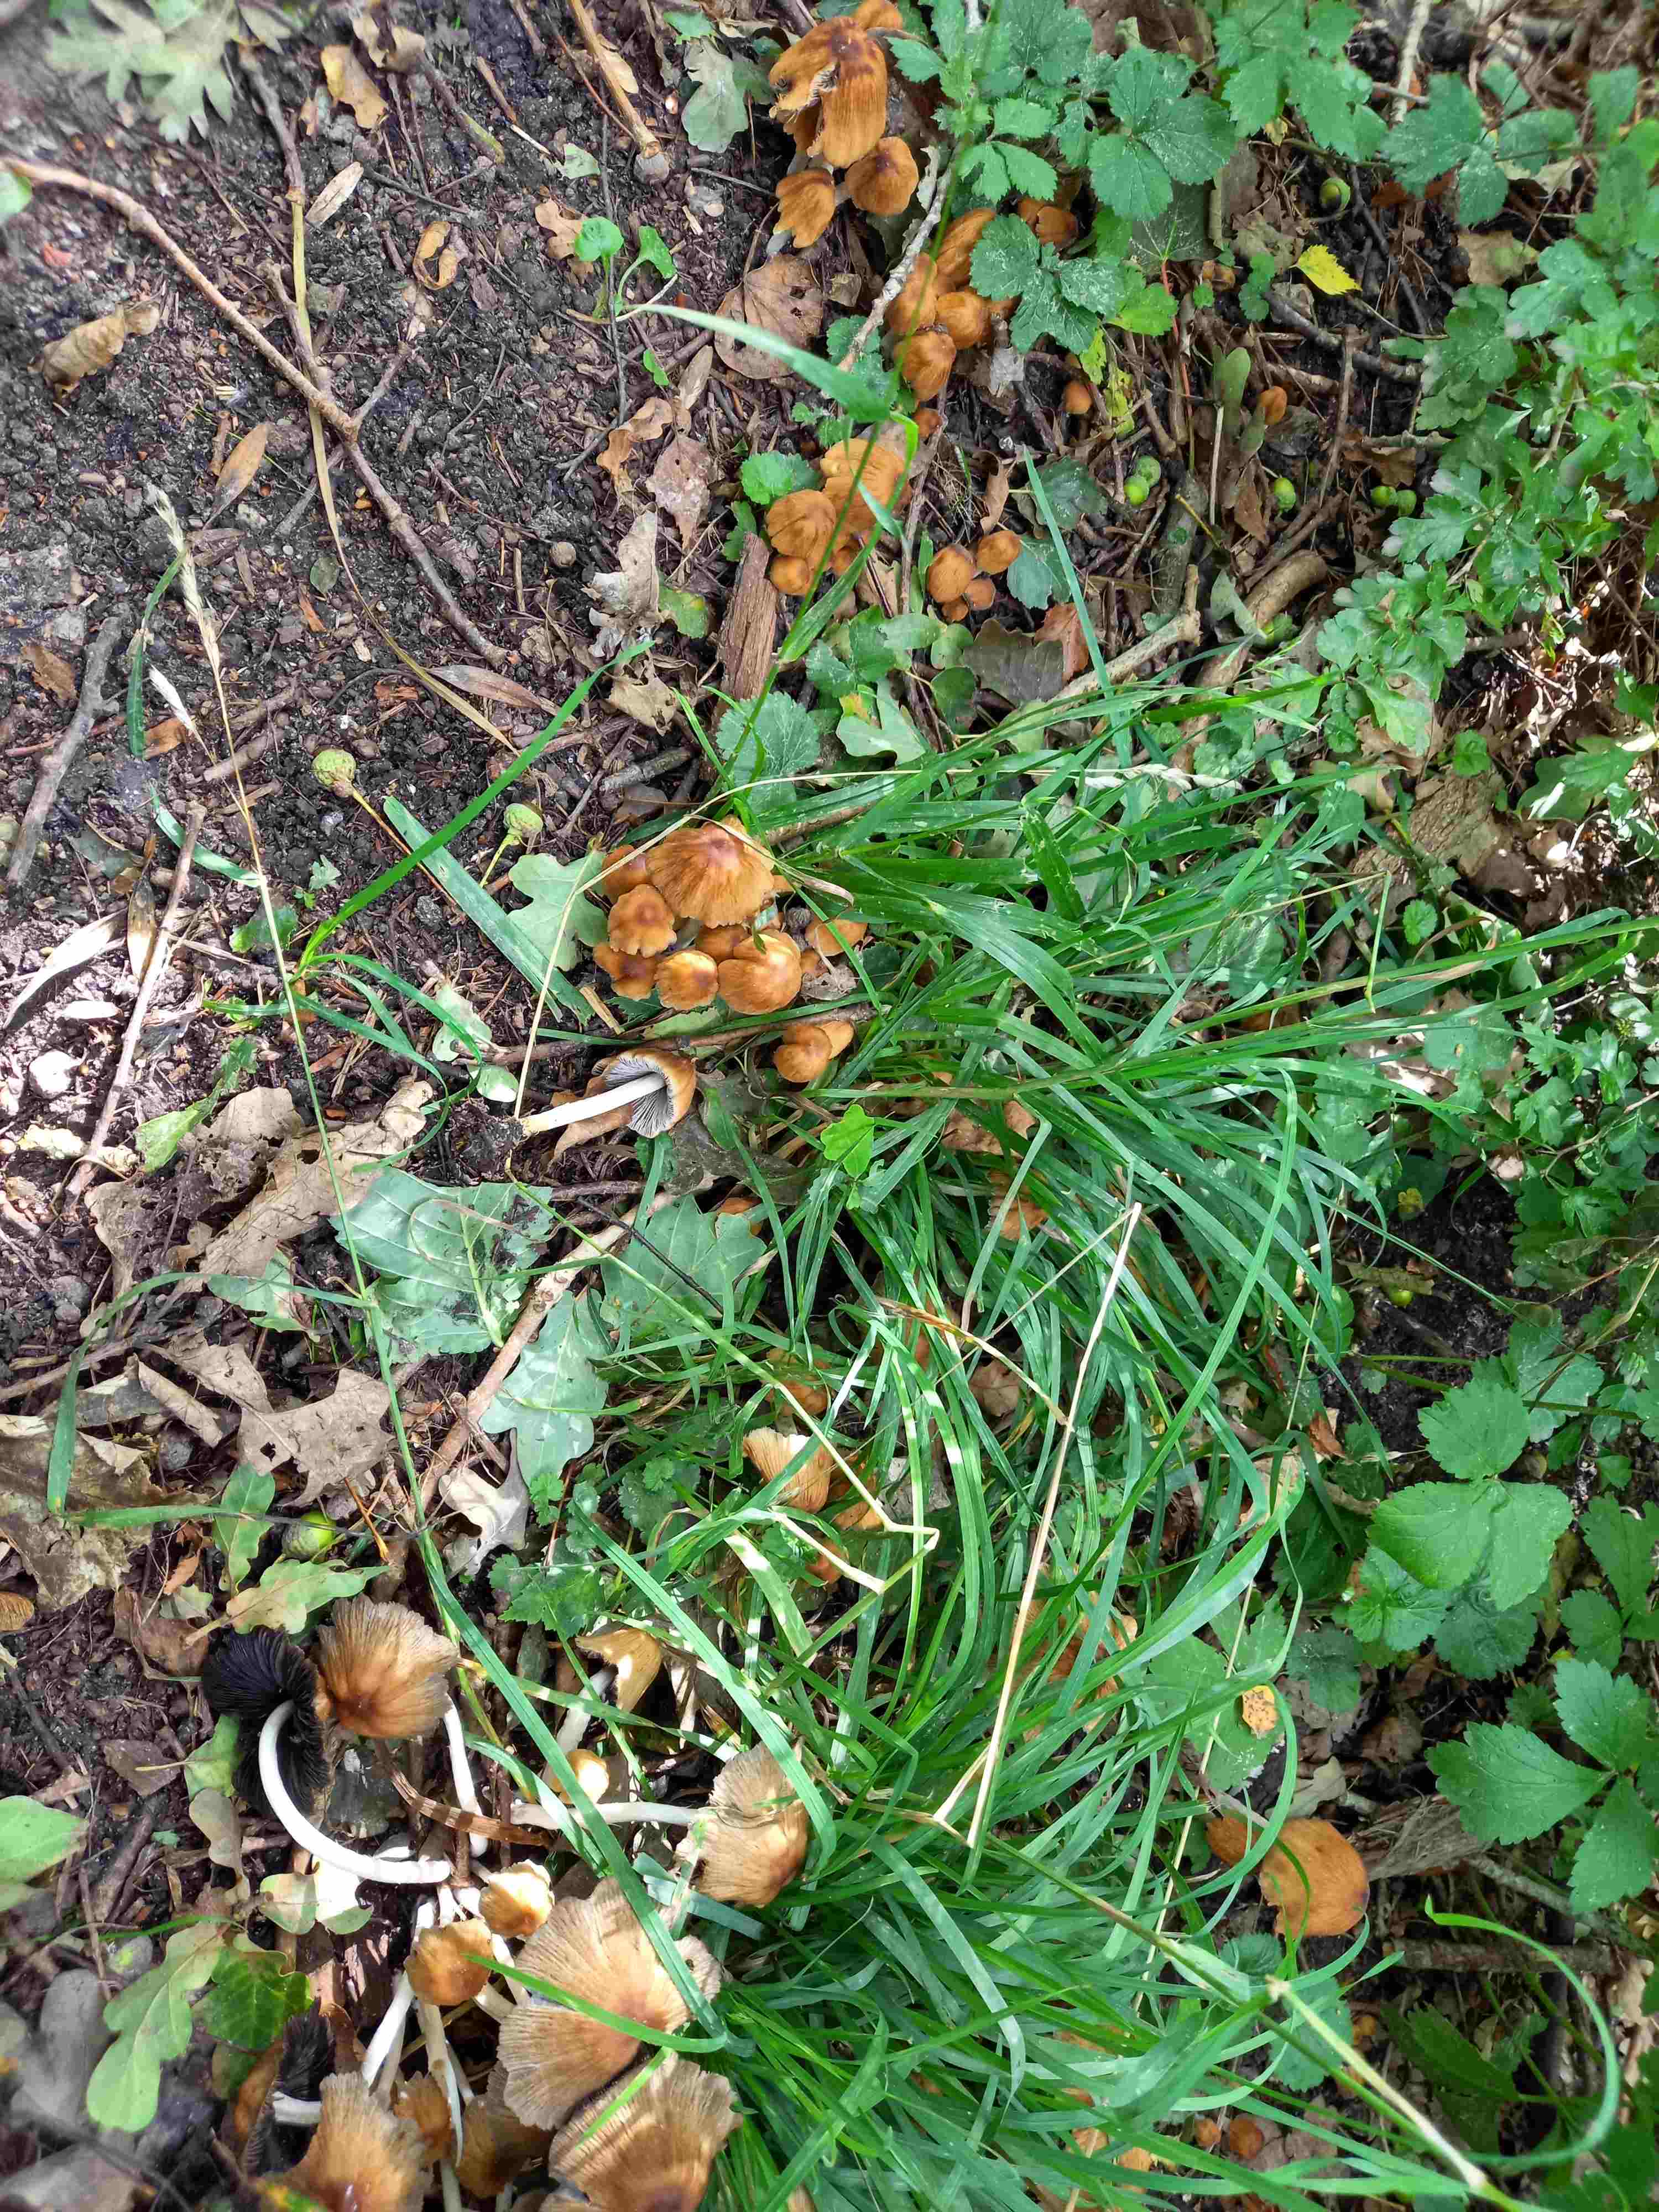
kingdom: Fungi
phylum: Basidiomycota
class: Agaricomycetes
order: Agaricales
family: Psathyrellaceae
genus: Coprinellus
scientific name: Coprinellus
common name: blækhat
